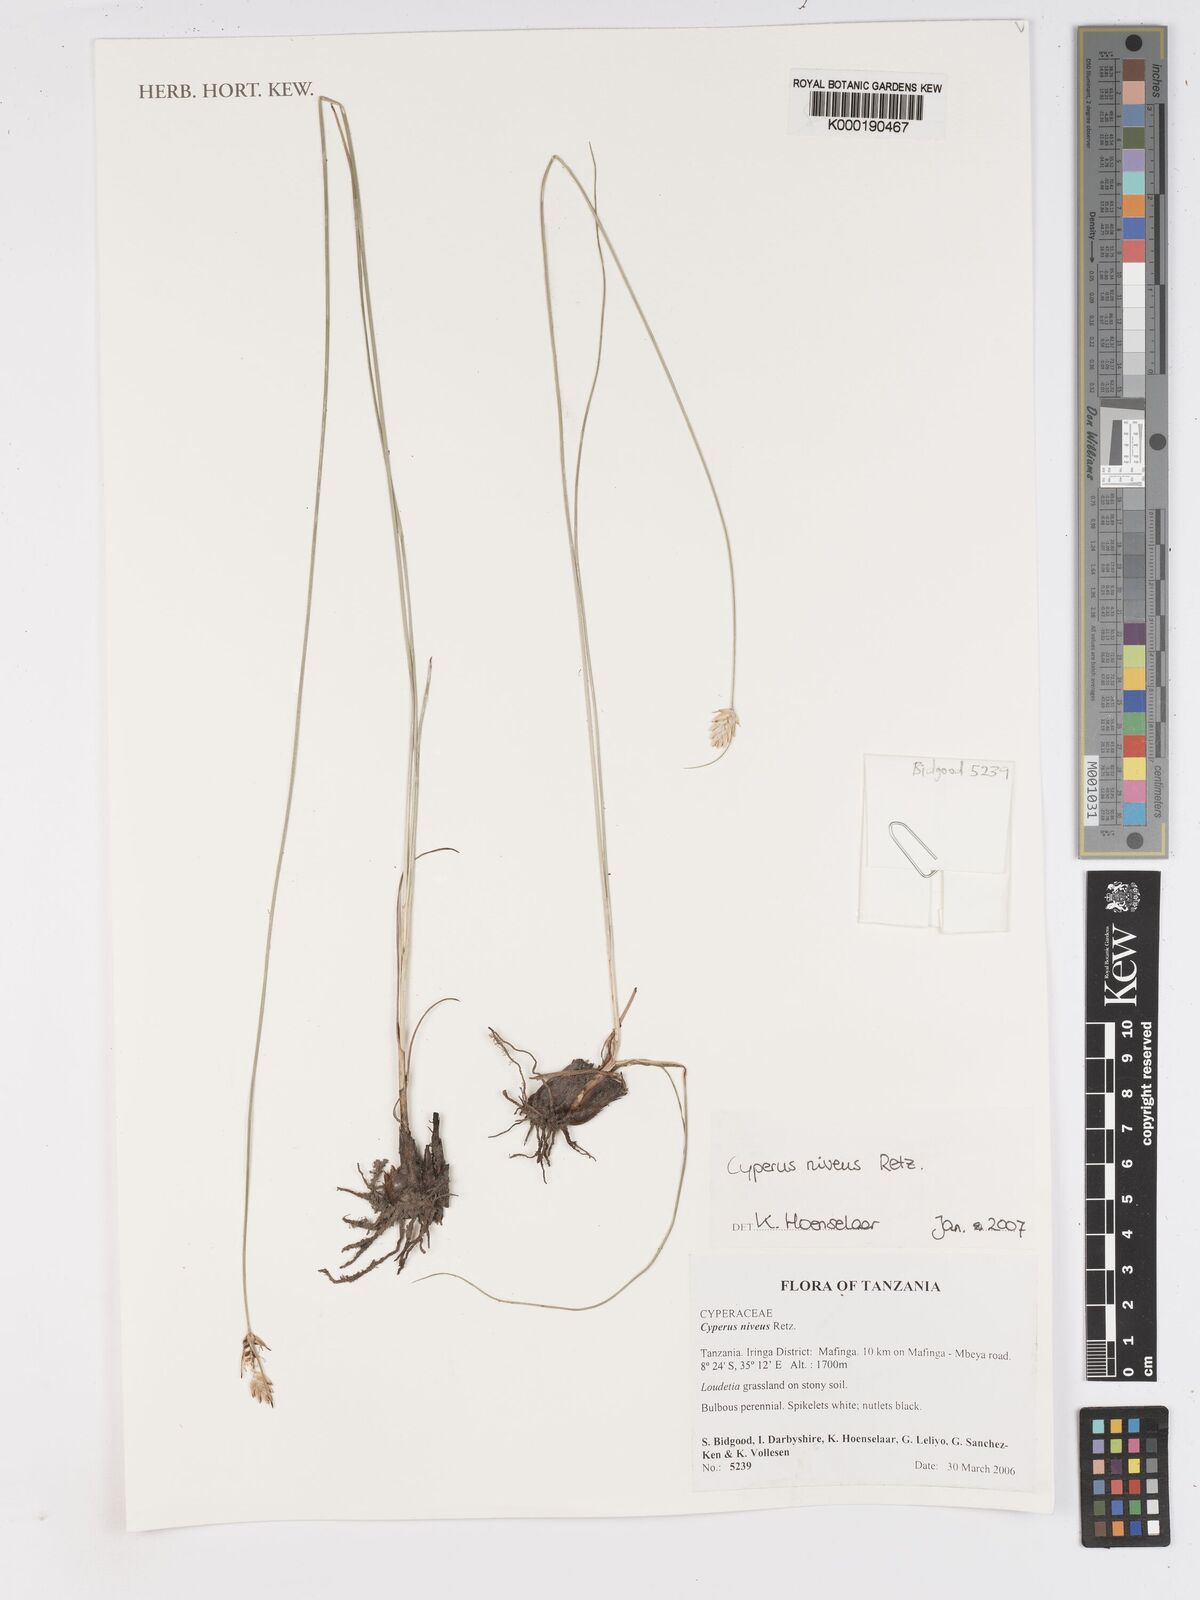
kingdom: Plantae
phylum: Tracheophyta
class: Liliopsida
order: Poales
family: Cyperaceae
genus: Cyperus
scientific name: Cyperus niveus
